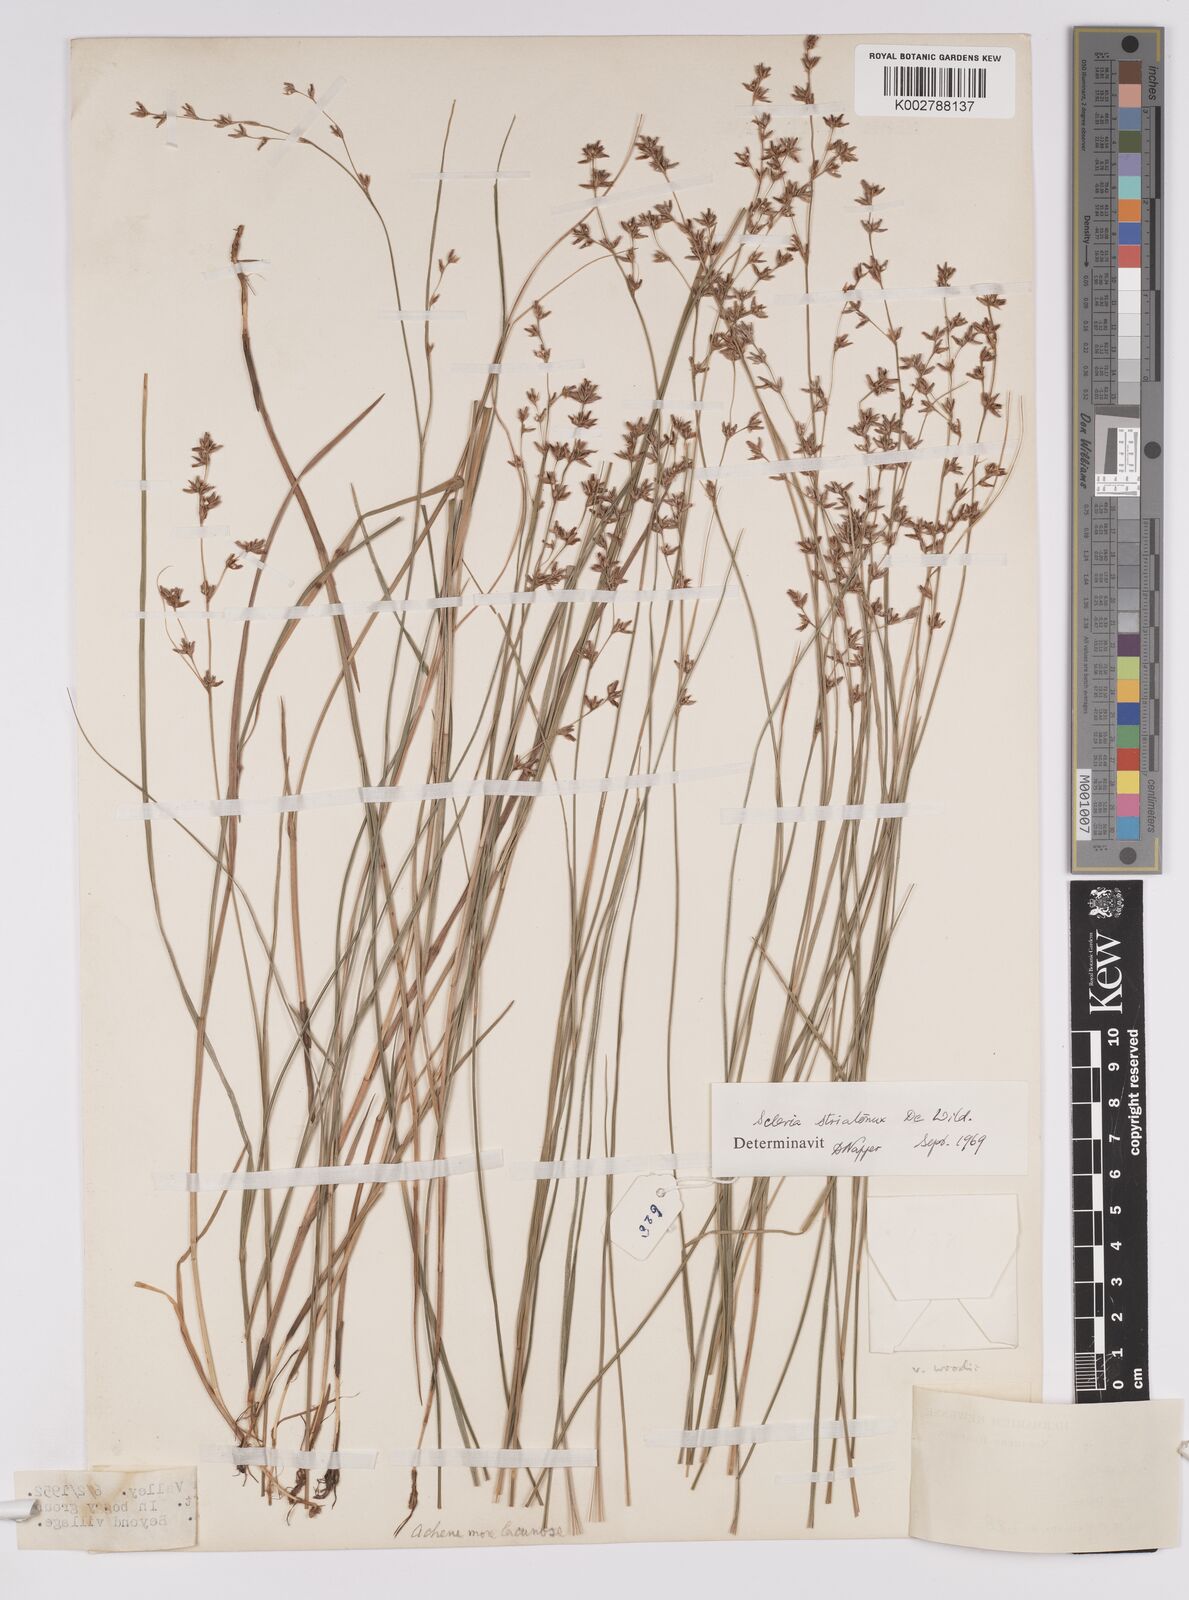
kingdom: Plantae
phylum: Tracheophyta
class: Liliopsida
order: Poales
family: Cyperaceae
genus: Scleria
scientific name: Scleria woodii
